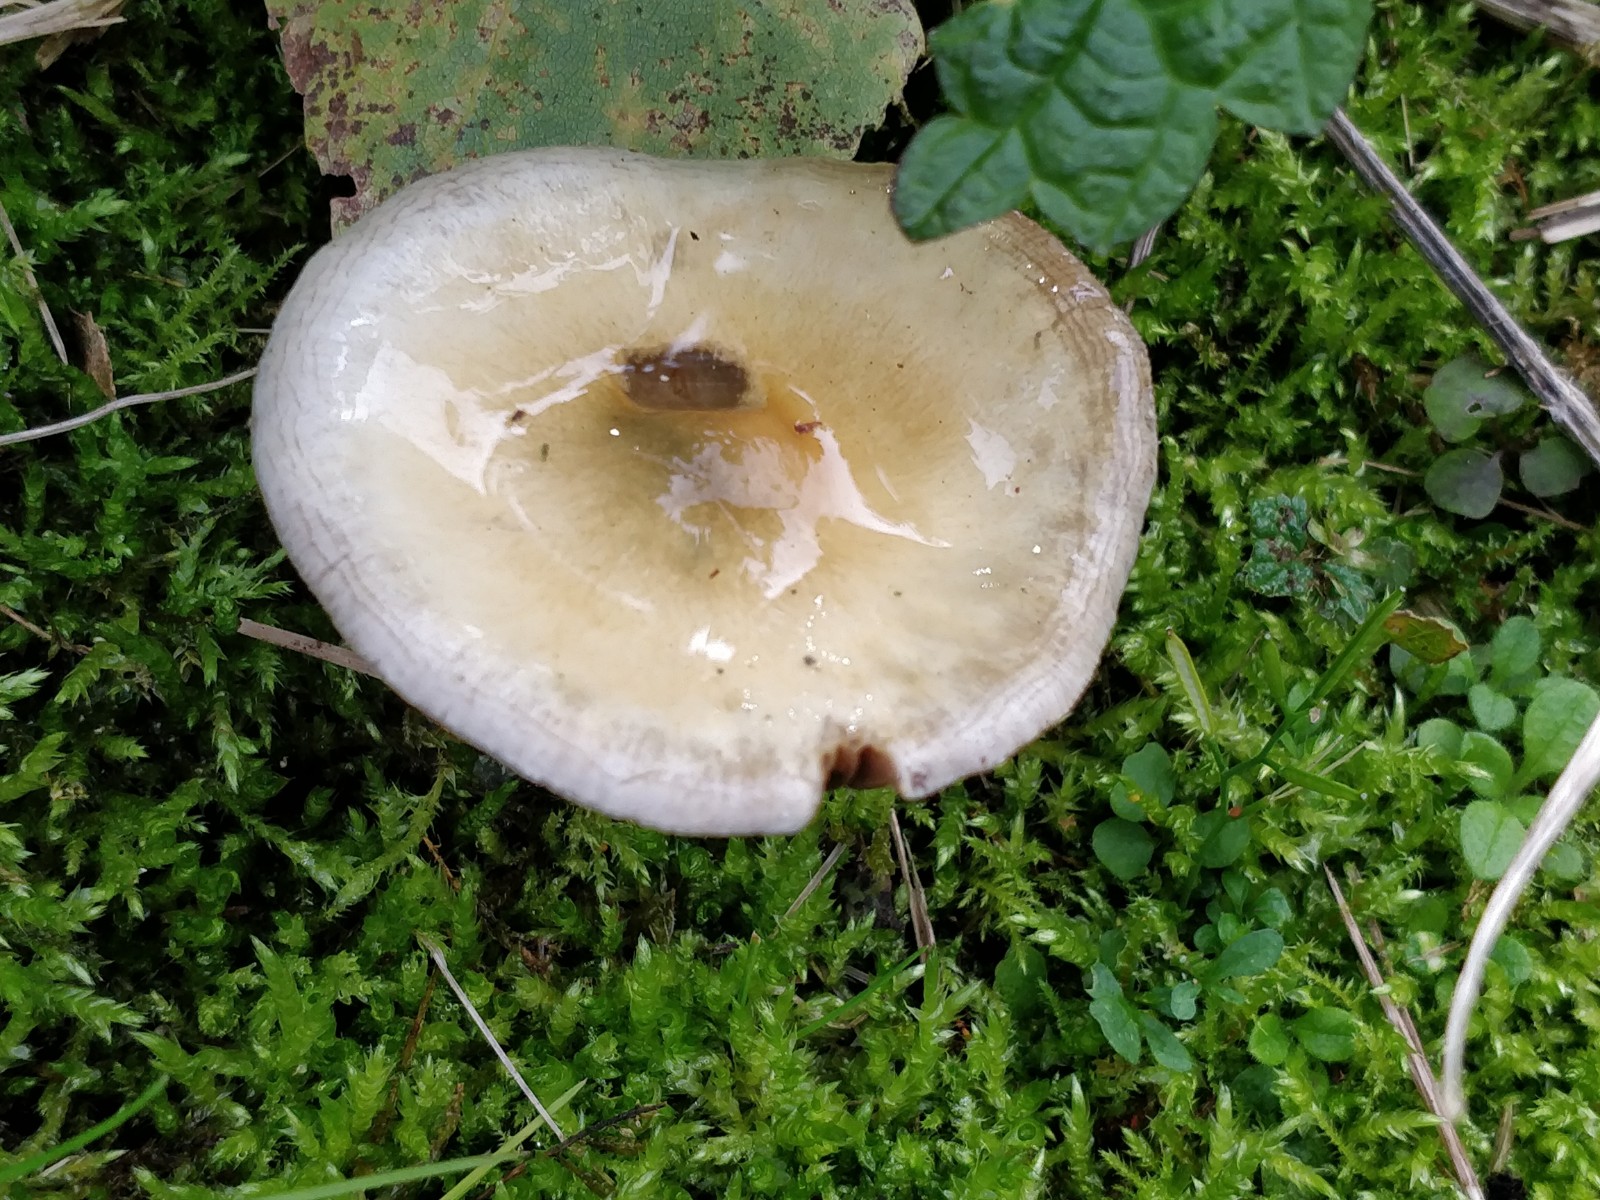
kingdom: Fungi
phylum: Basidiomycota
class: Agaricomycetes
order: Agaricales
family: Strophariaceae
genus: Stropharia
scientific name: Stropharia
